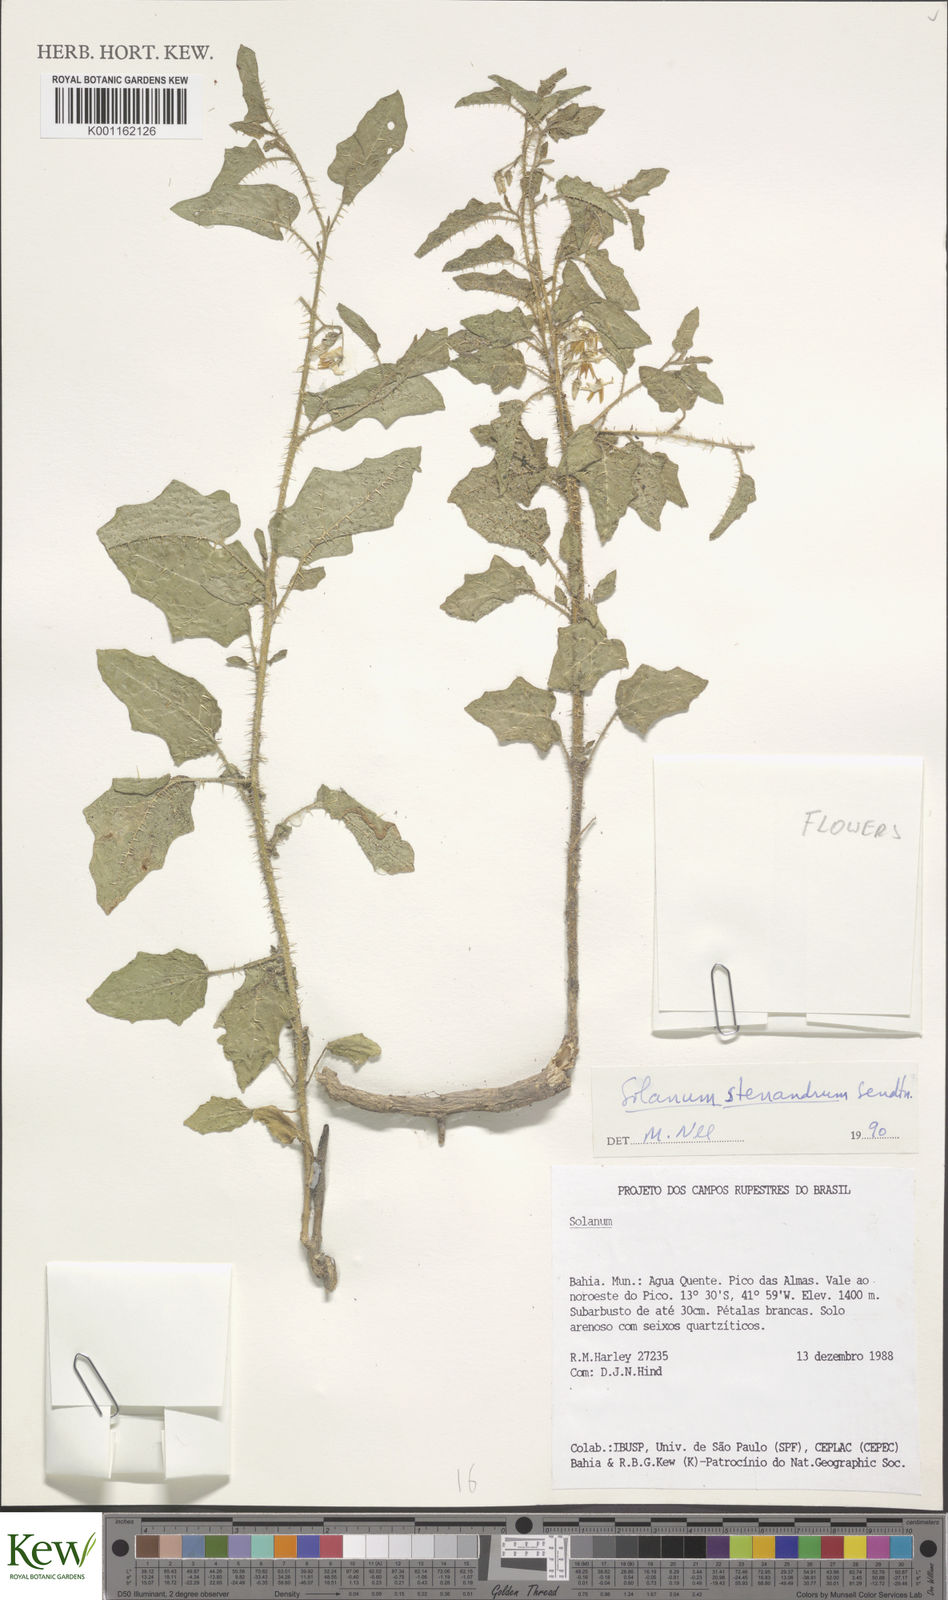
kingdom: Plantae
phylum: Tracheophyta
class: Magnoliopsida
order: Solanales
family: Solanaceae
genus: Solanum
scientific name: Solanum stenandrum
